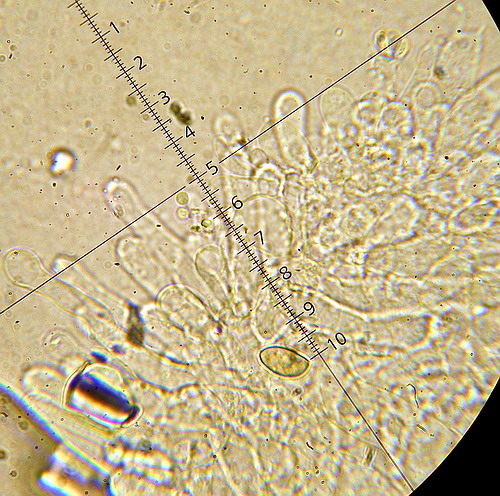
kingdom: Fungi
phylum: Basidiomycota
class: Agaricomycetes
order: Agaricales
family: Hymenogastraceae
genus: Galerina
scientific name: Galerina mniophila
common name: olivengul hjelmhat
